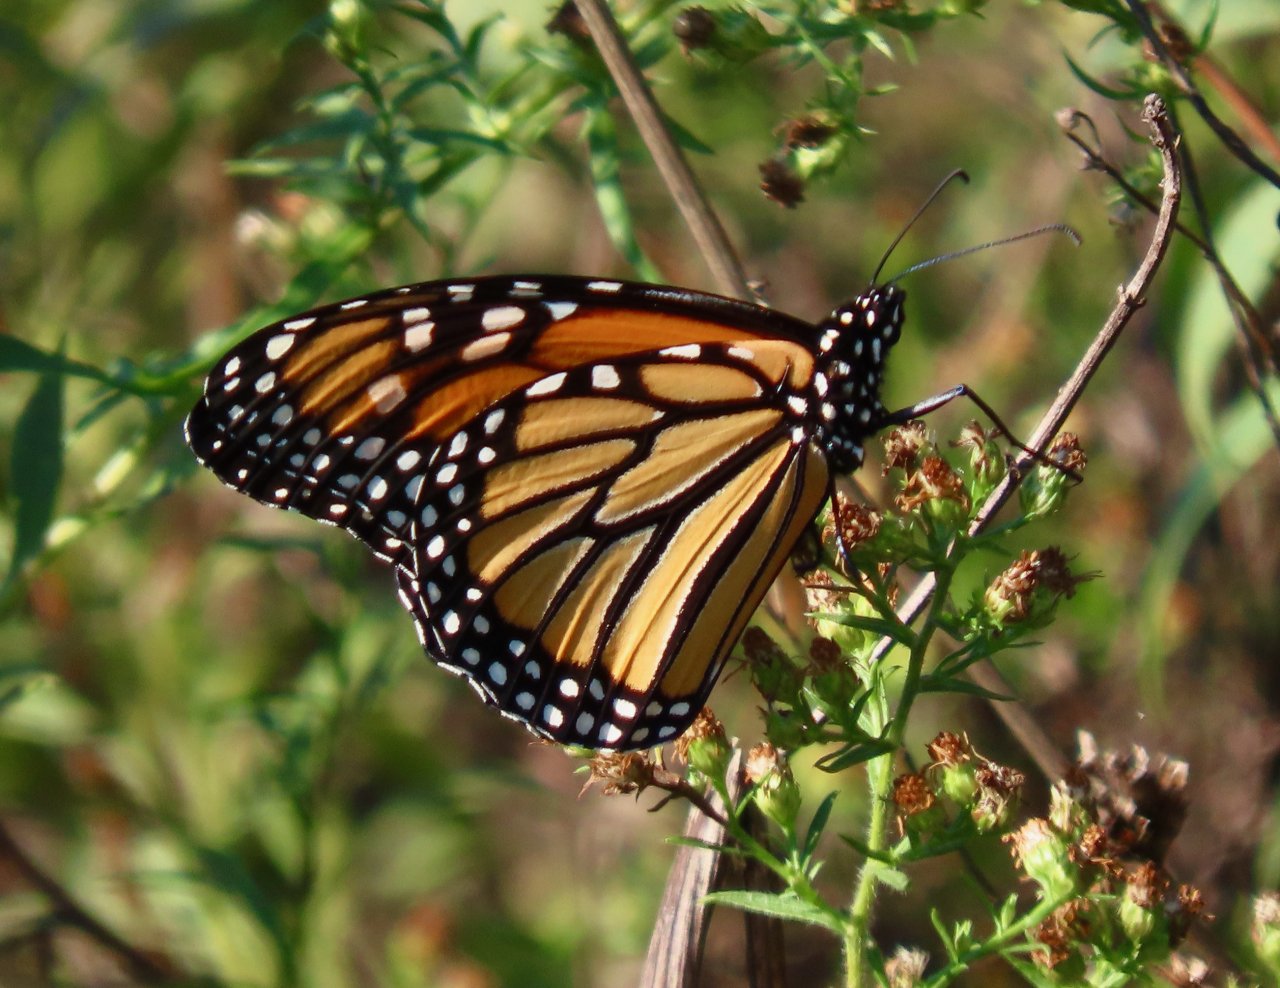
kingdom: Animalia
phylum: Arthropoda
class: Insecta
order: Lepidoptera
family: Nymphalidae
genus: Danaus
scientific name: Danaus plexippus
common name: Monarch
